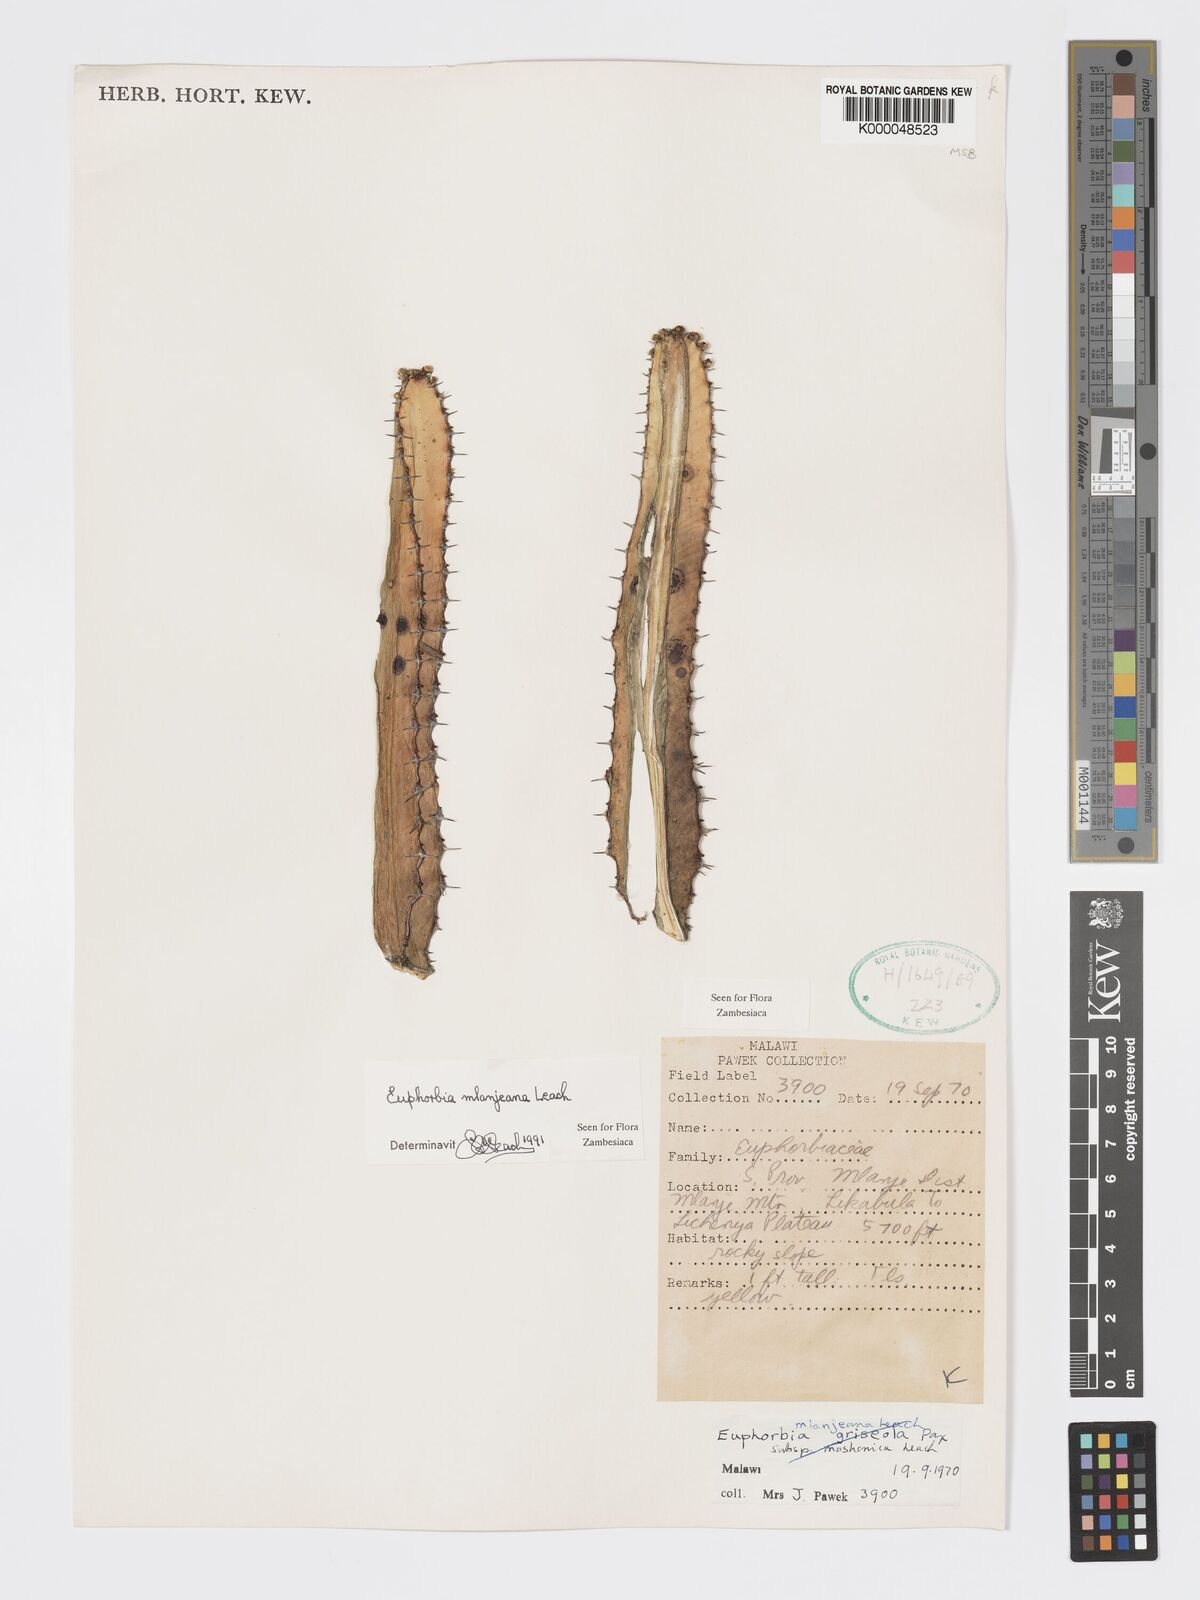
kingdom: Plantae
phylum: Tracheophyta
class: Magnoliopsida
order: Malpighiales
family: Euphorbiaceae
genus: Euphorbia
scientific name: Euphorbia mlanjeana
